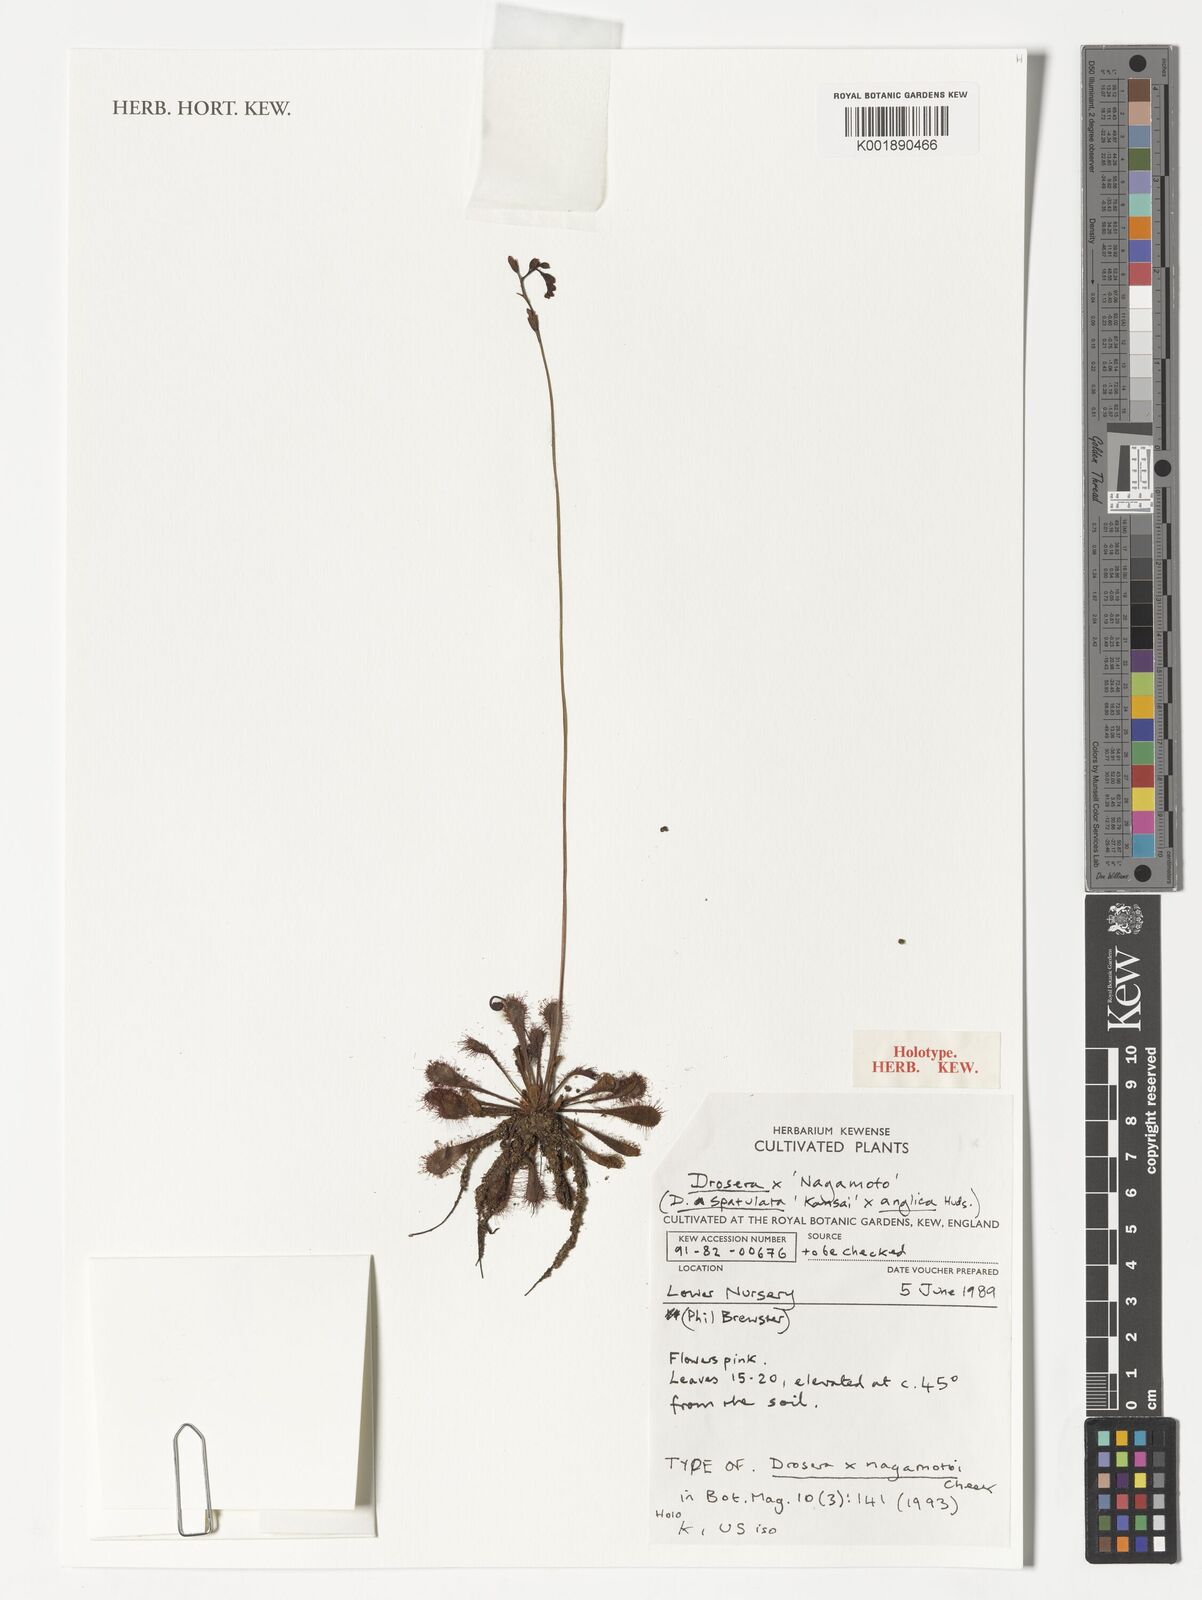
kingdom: Plantae
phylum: Tracheophyta
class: Magnoliopsida
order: Caryophyllales
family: Droseraceae
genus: Drosera
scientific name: Drosera nagamotoi
